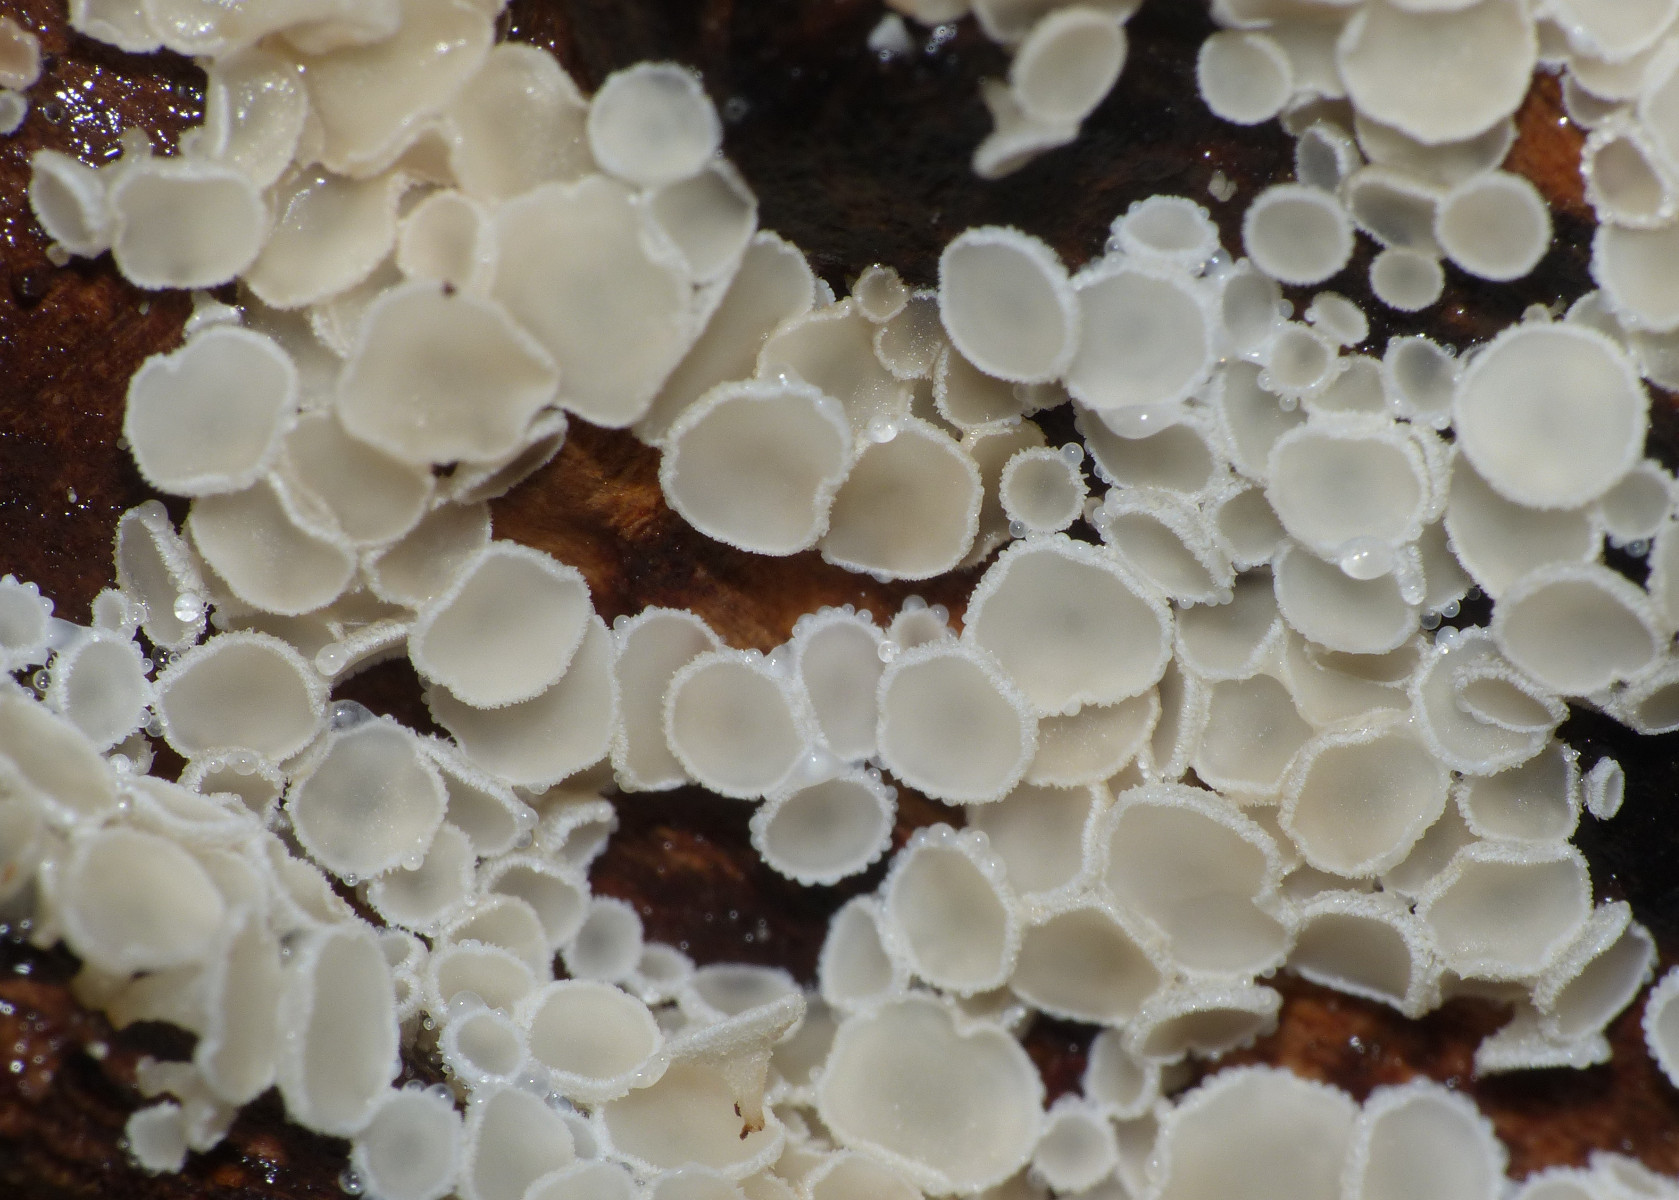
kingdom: Fungi
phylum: Ascomycota
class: Leotiomycetes
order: Helotiales
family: Hyaloscyphaceae
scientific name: Hyaloscyphaceae
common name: frynseskivefamilien
